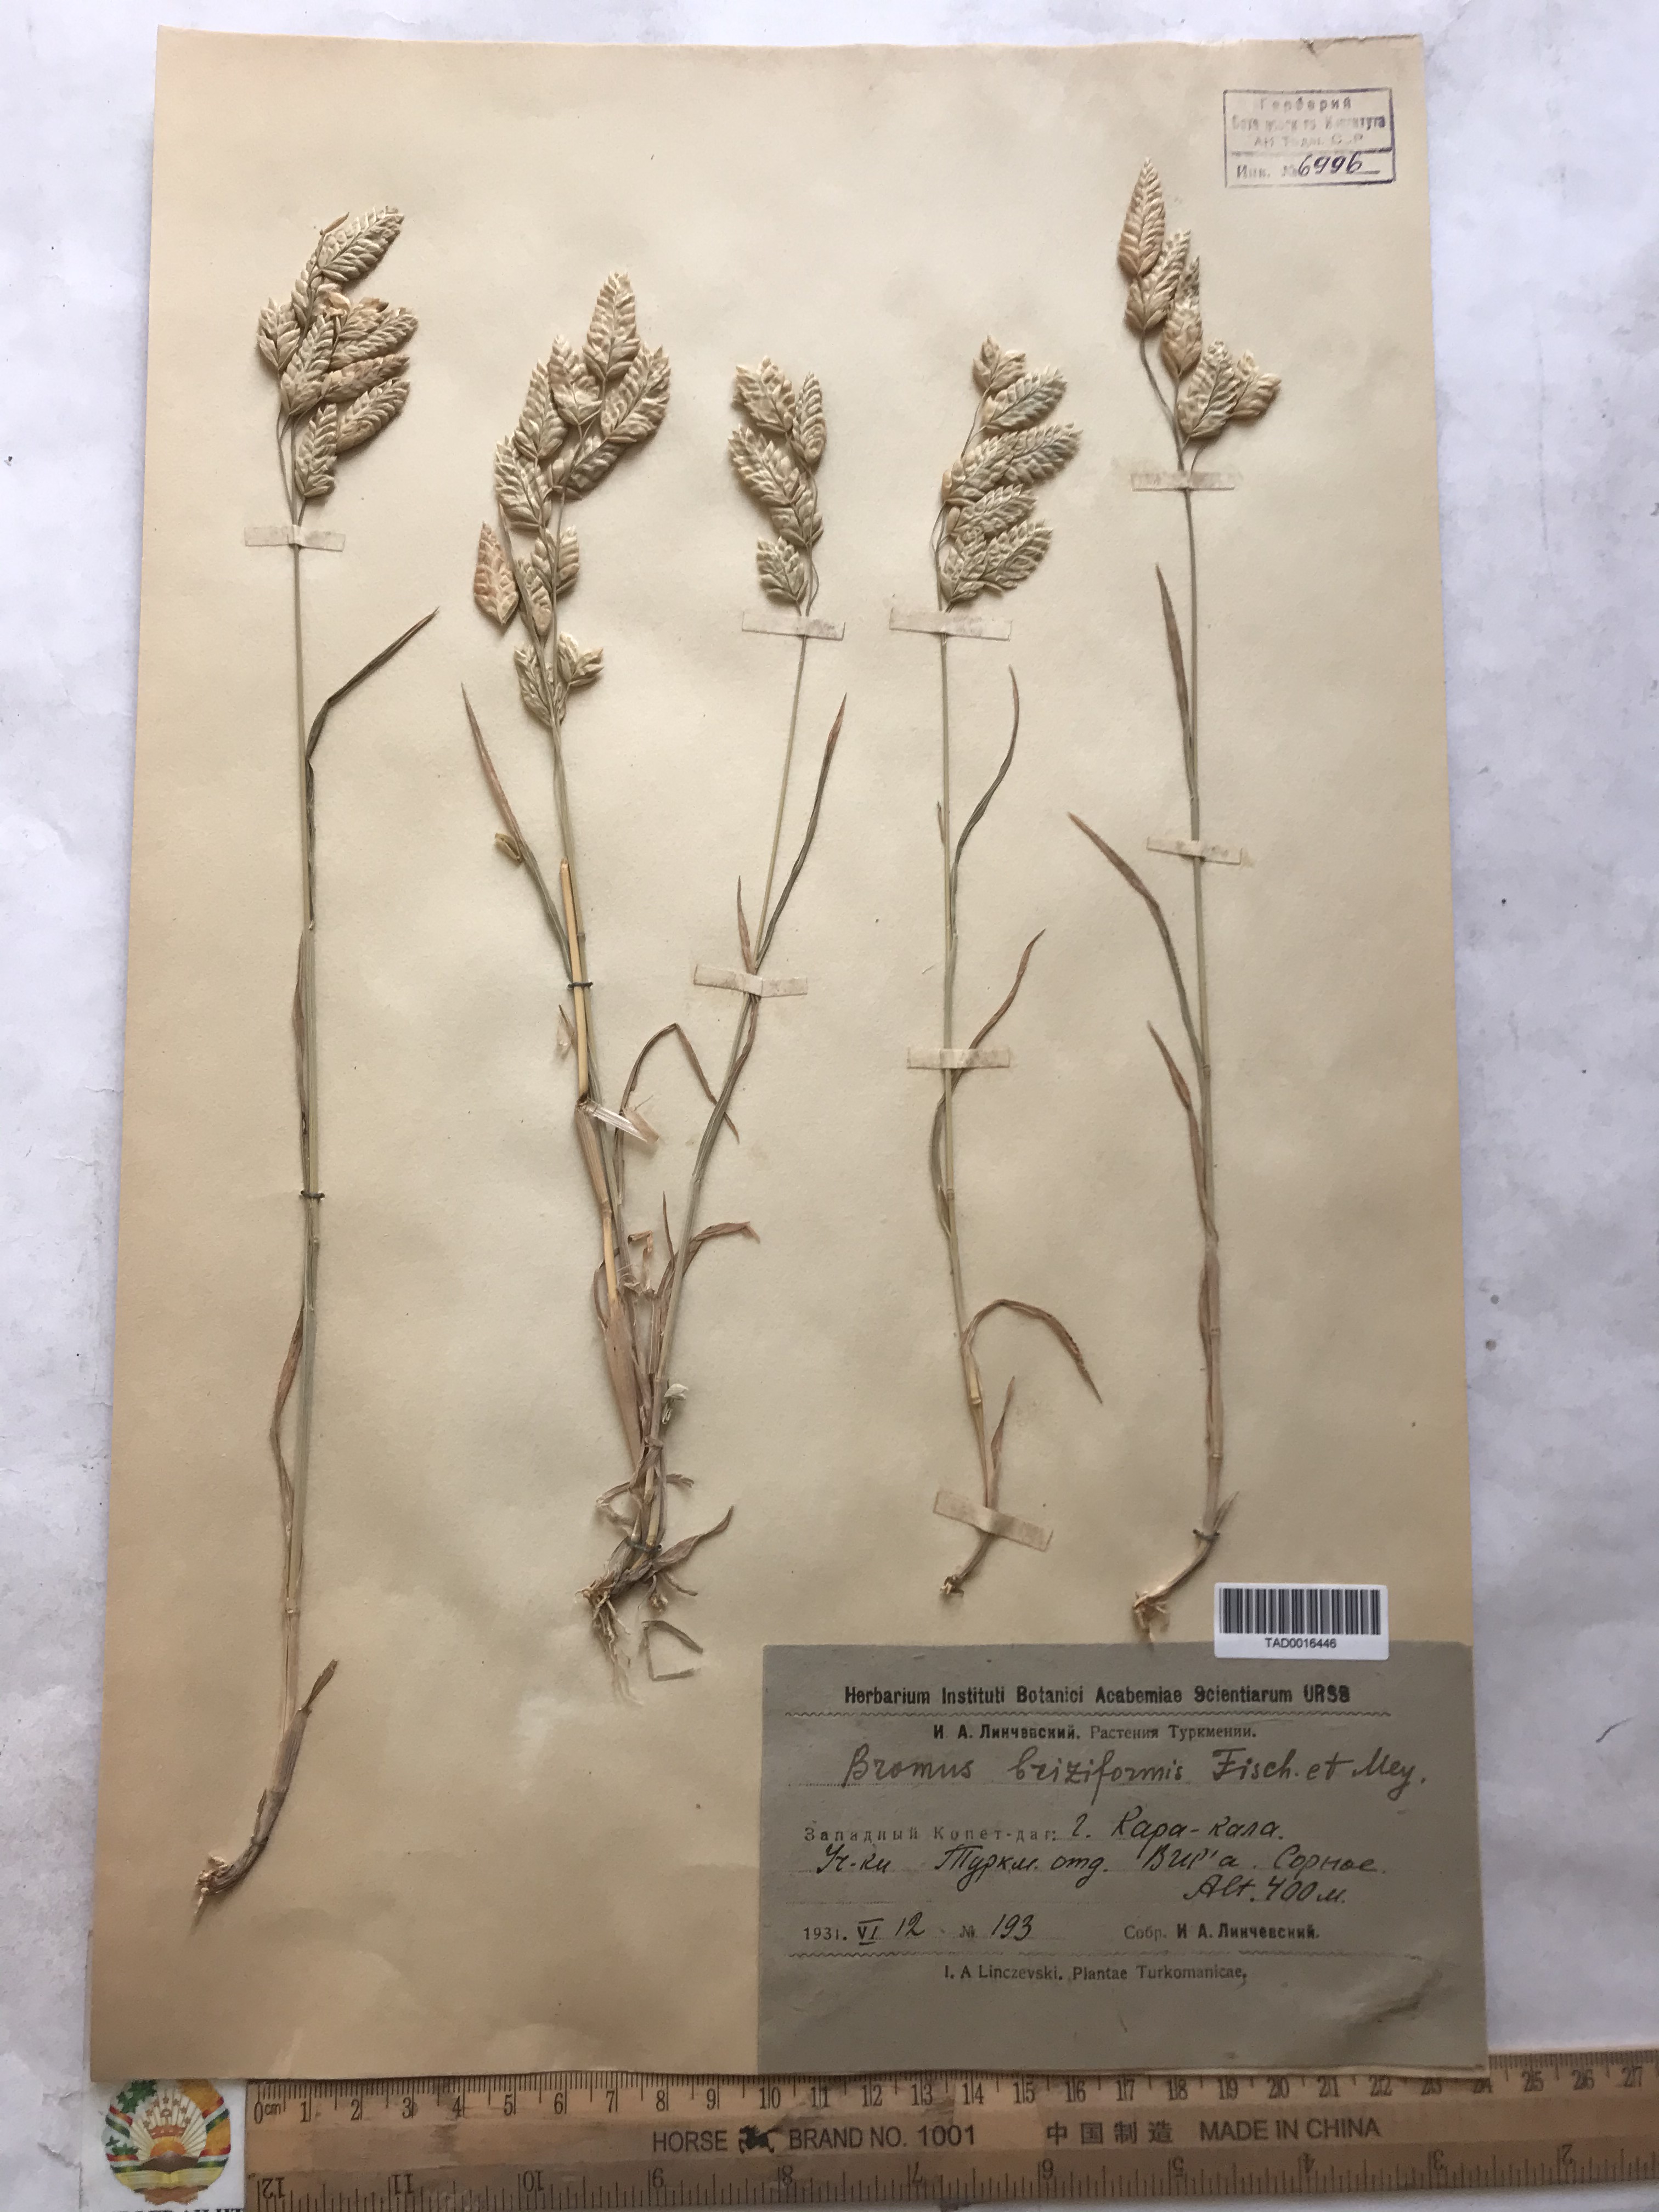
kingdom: Plantae
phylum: Tracheophyta
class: Liliopsida
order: Poales
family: Poaceae
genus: Bromus
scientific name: Bromus briziformis
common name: Rattlesnake brome
